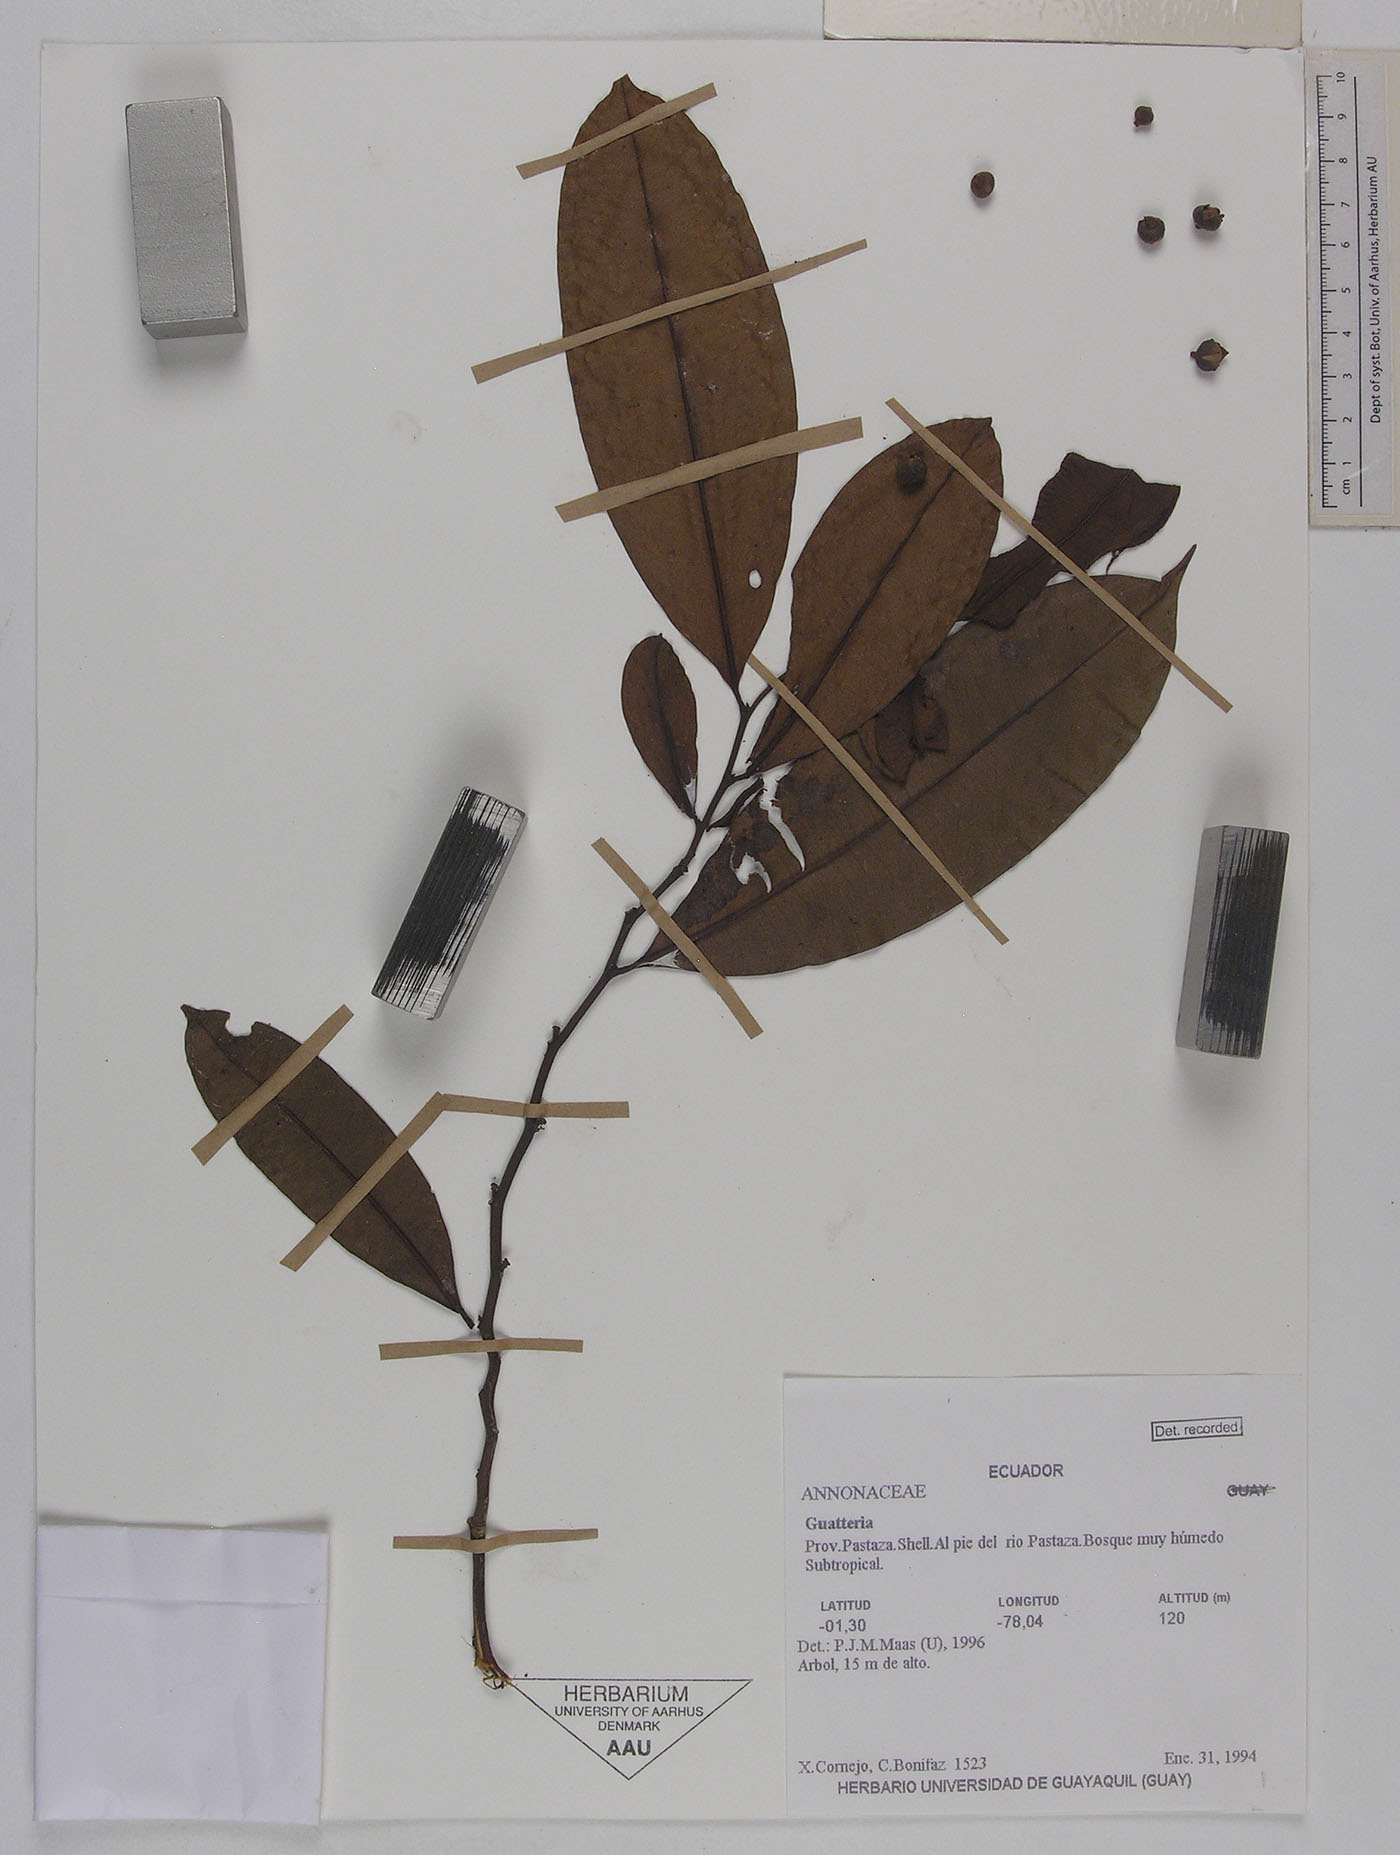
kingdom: Plantae
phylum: Tracheophyta
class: Magnoliopsida
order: Magnoliales
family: Annonaceae
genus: Guatteria
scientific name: Guatteria modesta
